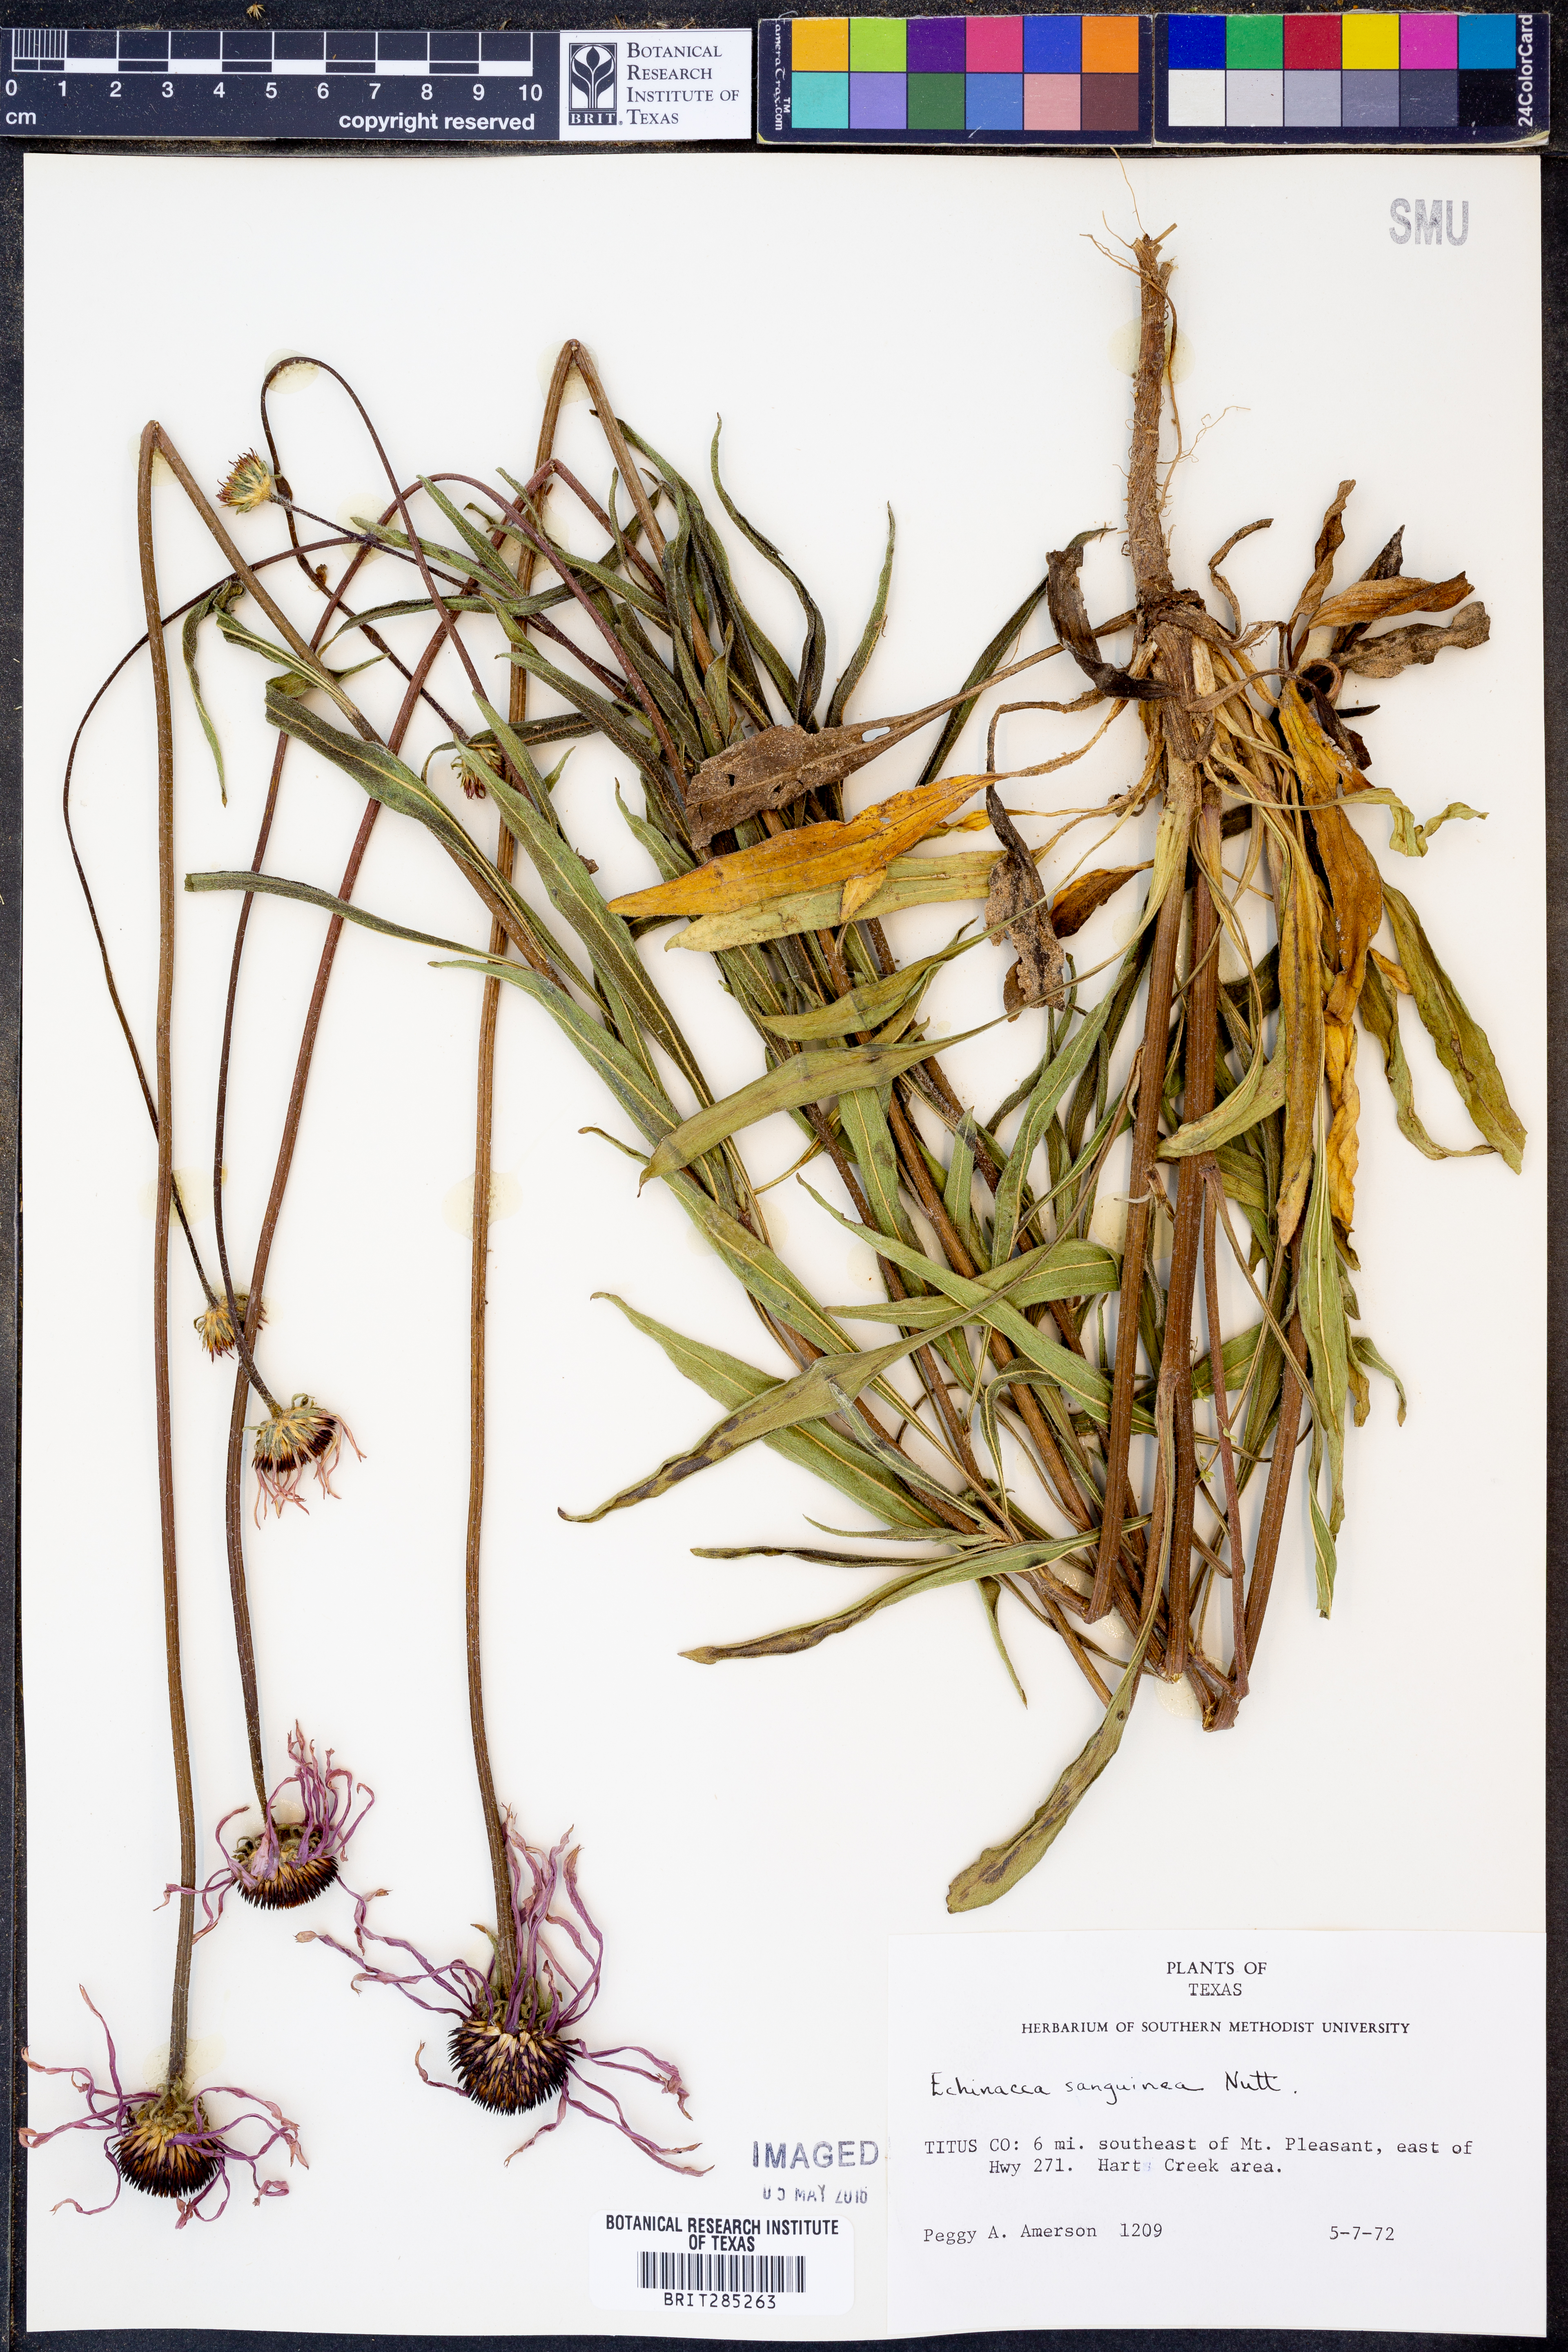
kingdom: Plantae
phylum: Tracheophyta
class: Magnoliopsida
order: Asterales
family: Asteraceae
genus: Echinacea
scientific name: Echinacea sanguinea
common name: Sanguine purple-coneflower
